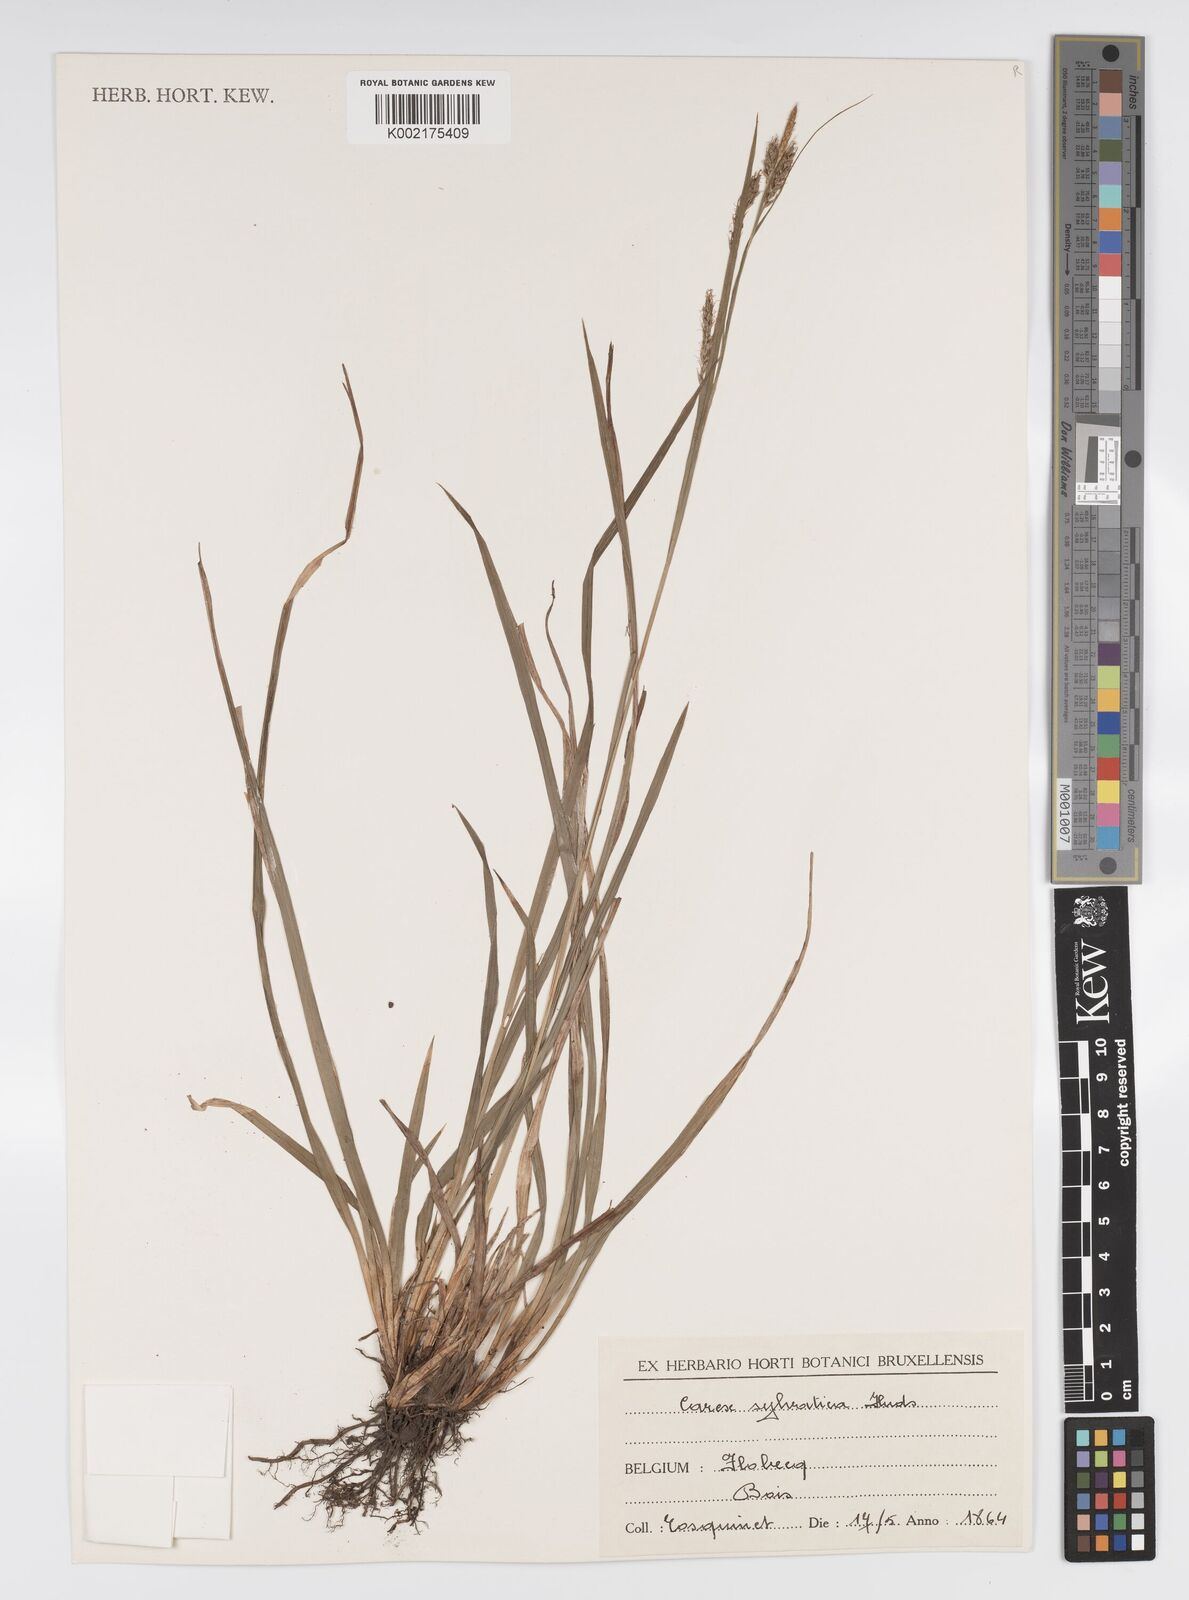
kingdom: Plantae
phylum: Tracheophyta
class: Liliopsida
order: Poales
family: Cyperaceae
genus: Carex
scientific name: Carex sylvatica
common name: Wood-sedge
